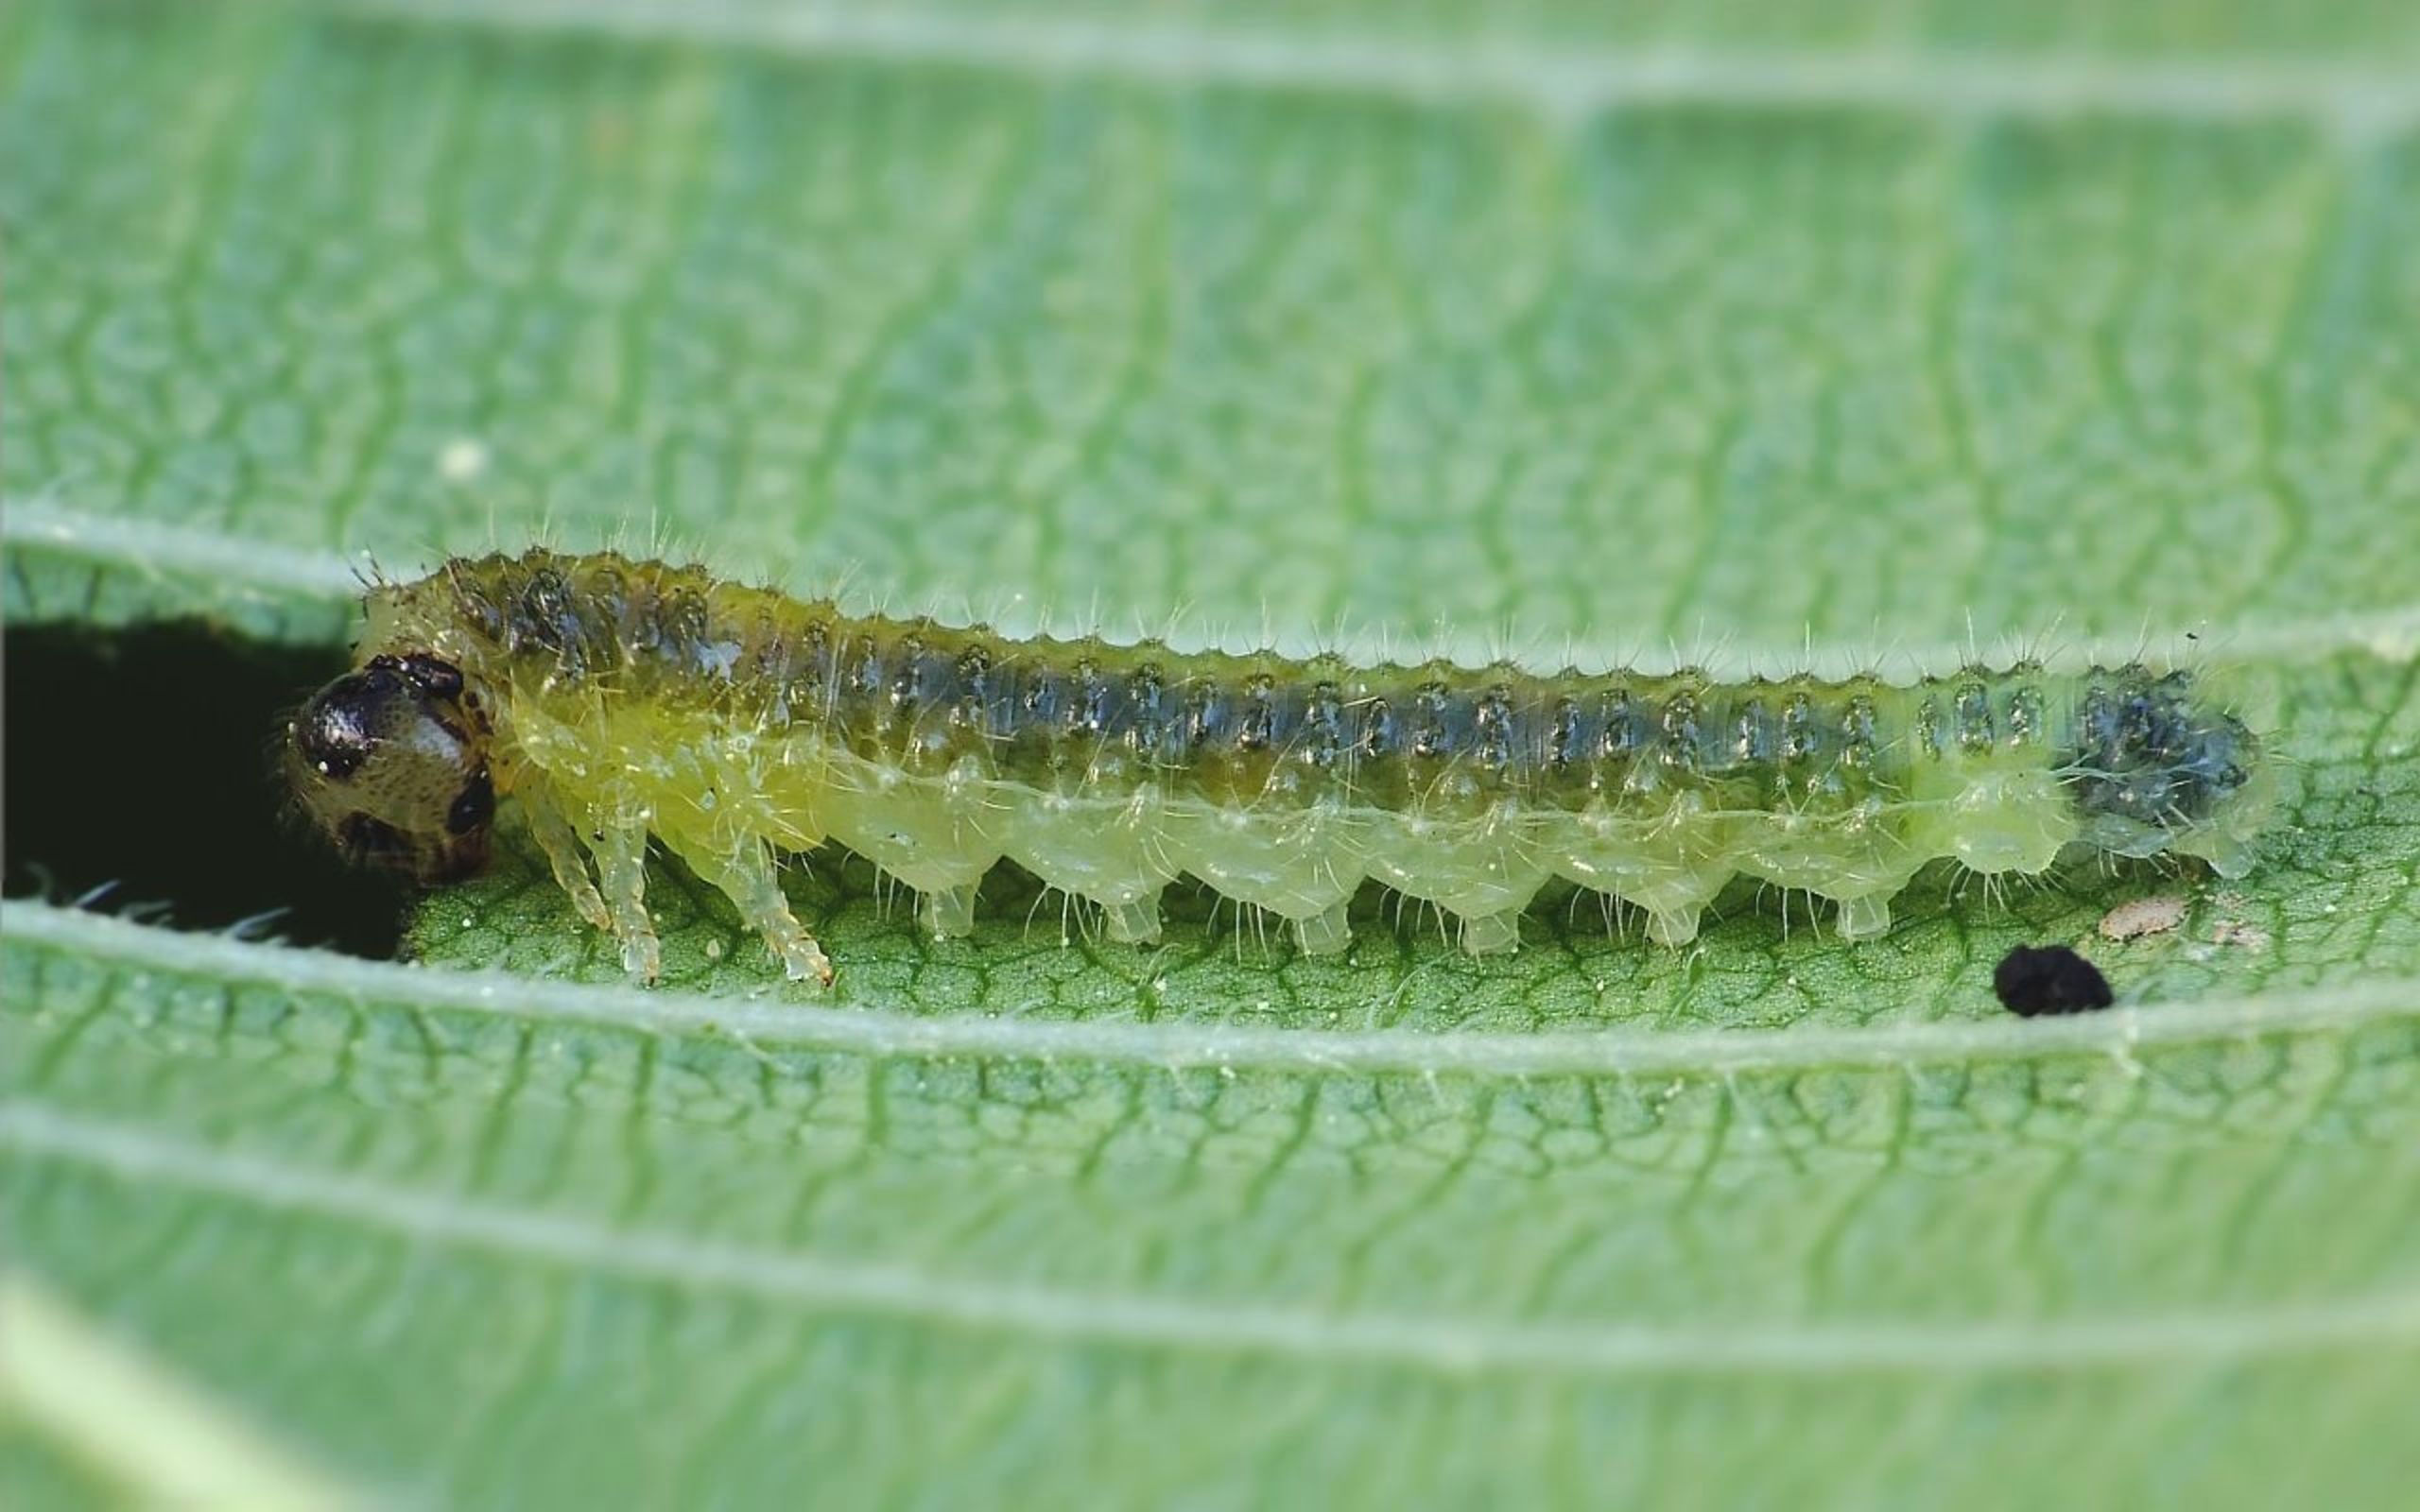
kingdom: Animalia
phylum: Arthropoda
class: Insecta
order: Hymenoptera
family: Tenthredinidae
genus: Cladius
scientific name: Cladius ulmi
